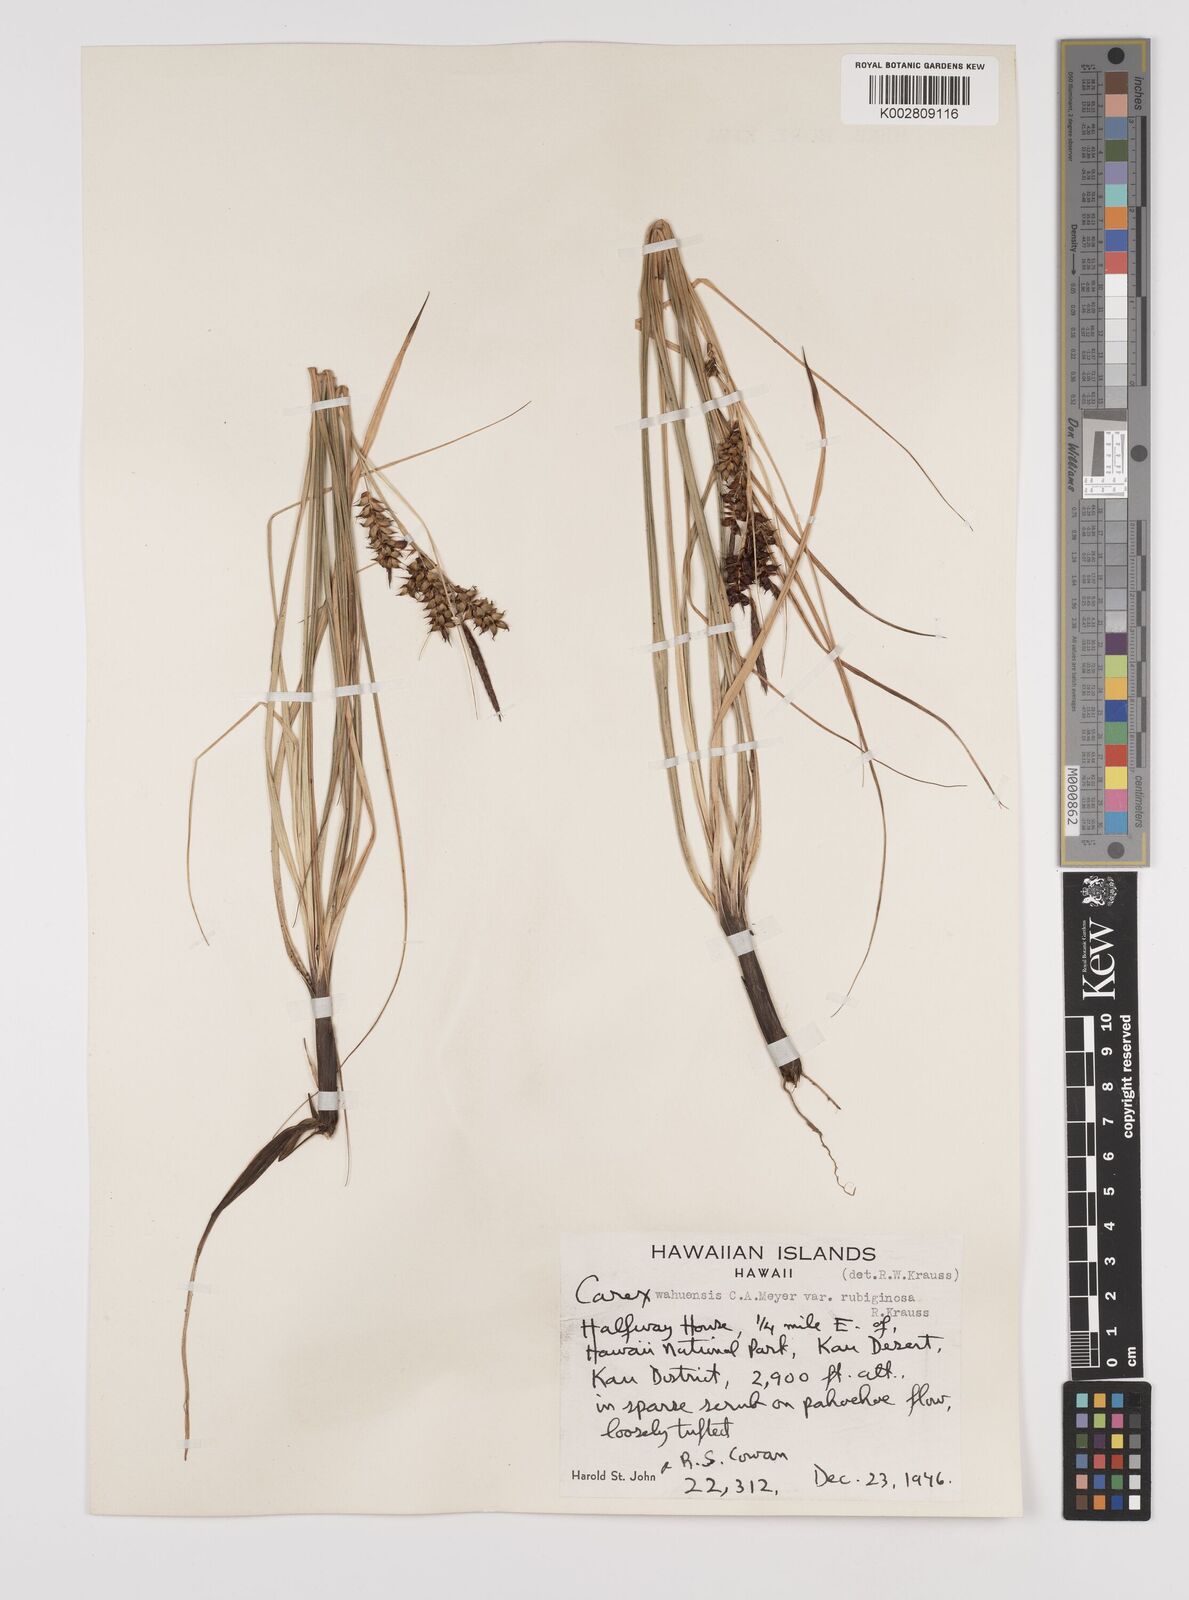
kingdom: Plantae
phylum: Tracheophyta
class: Liliopsida
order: Poales
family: Cyperaceae
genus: Carex
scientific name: Carex wahuensis
